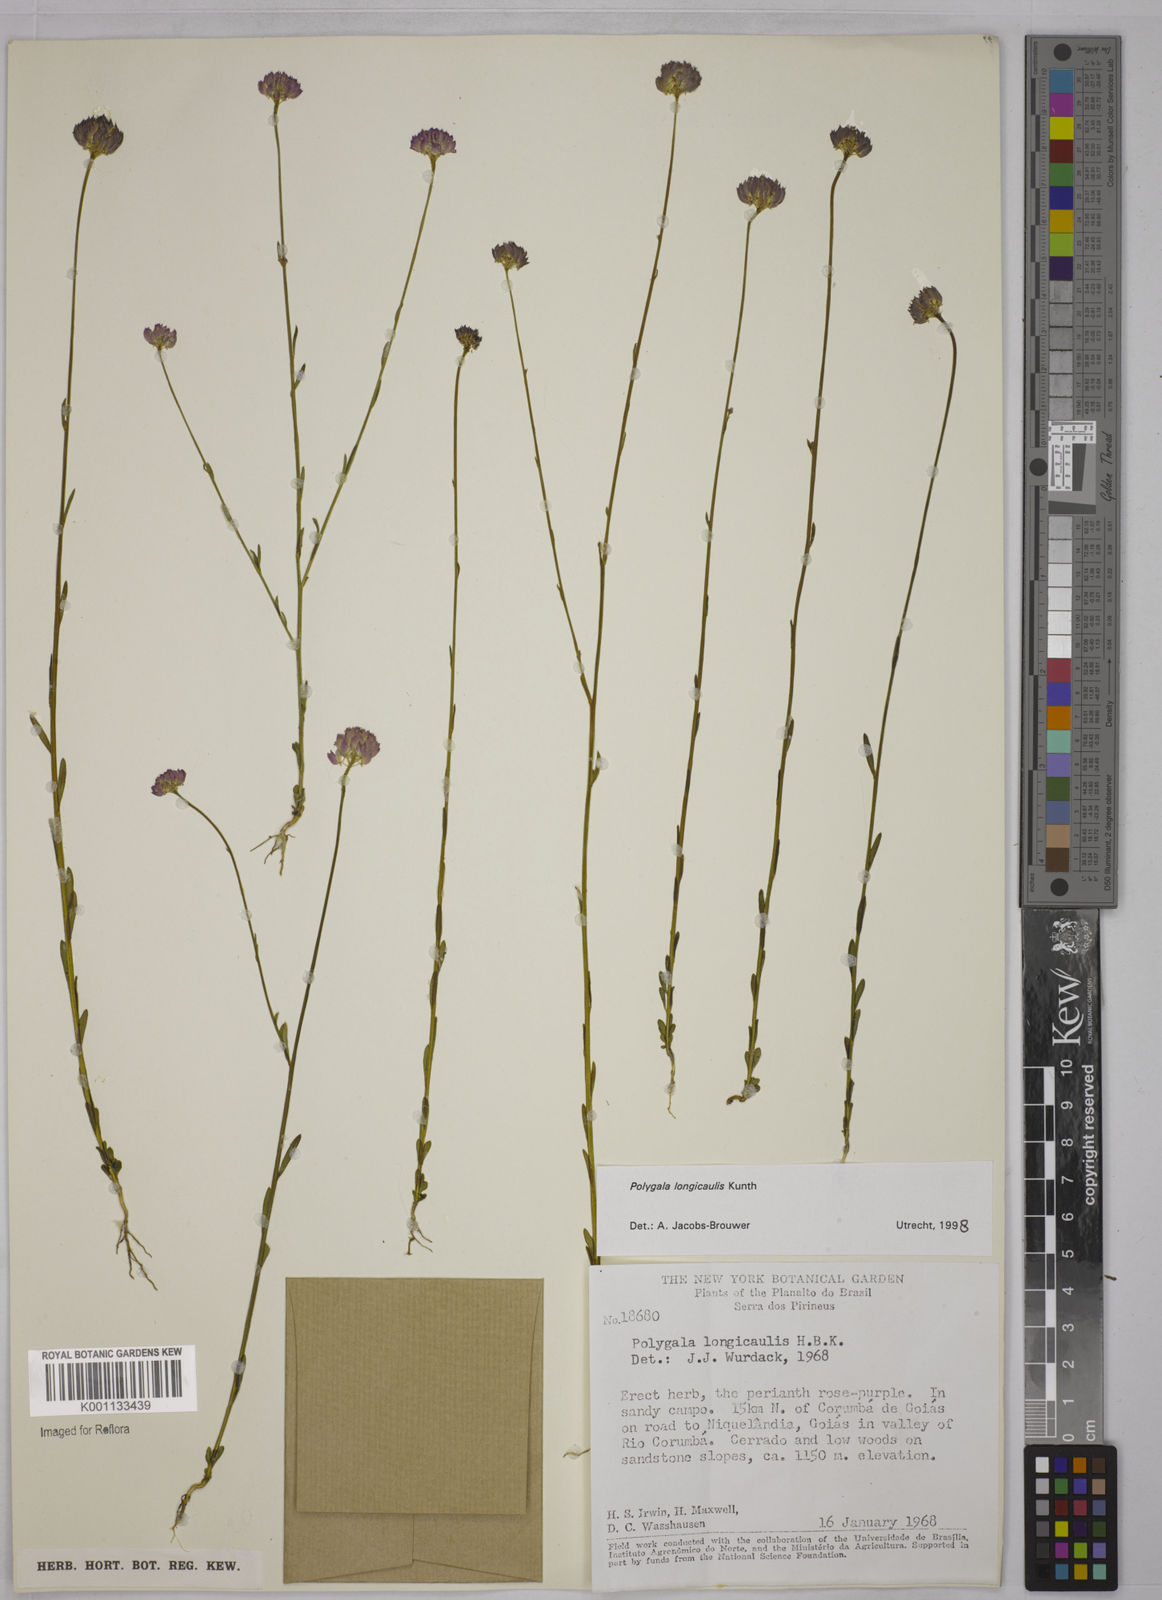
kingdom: Plantae
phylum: Tracheophyta
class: Magnoliopsida
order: Fabales
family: Polygalaceae
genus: Polygala
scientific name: Polygala longicaulis
